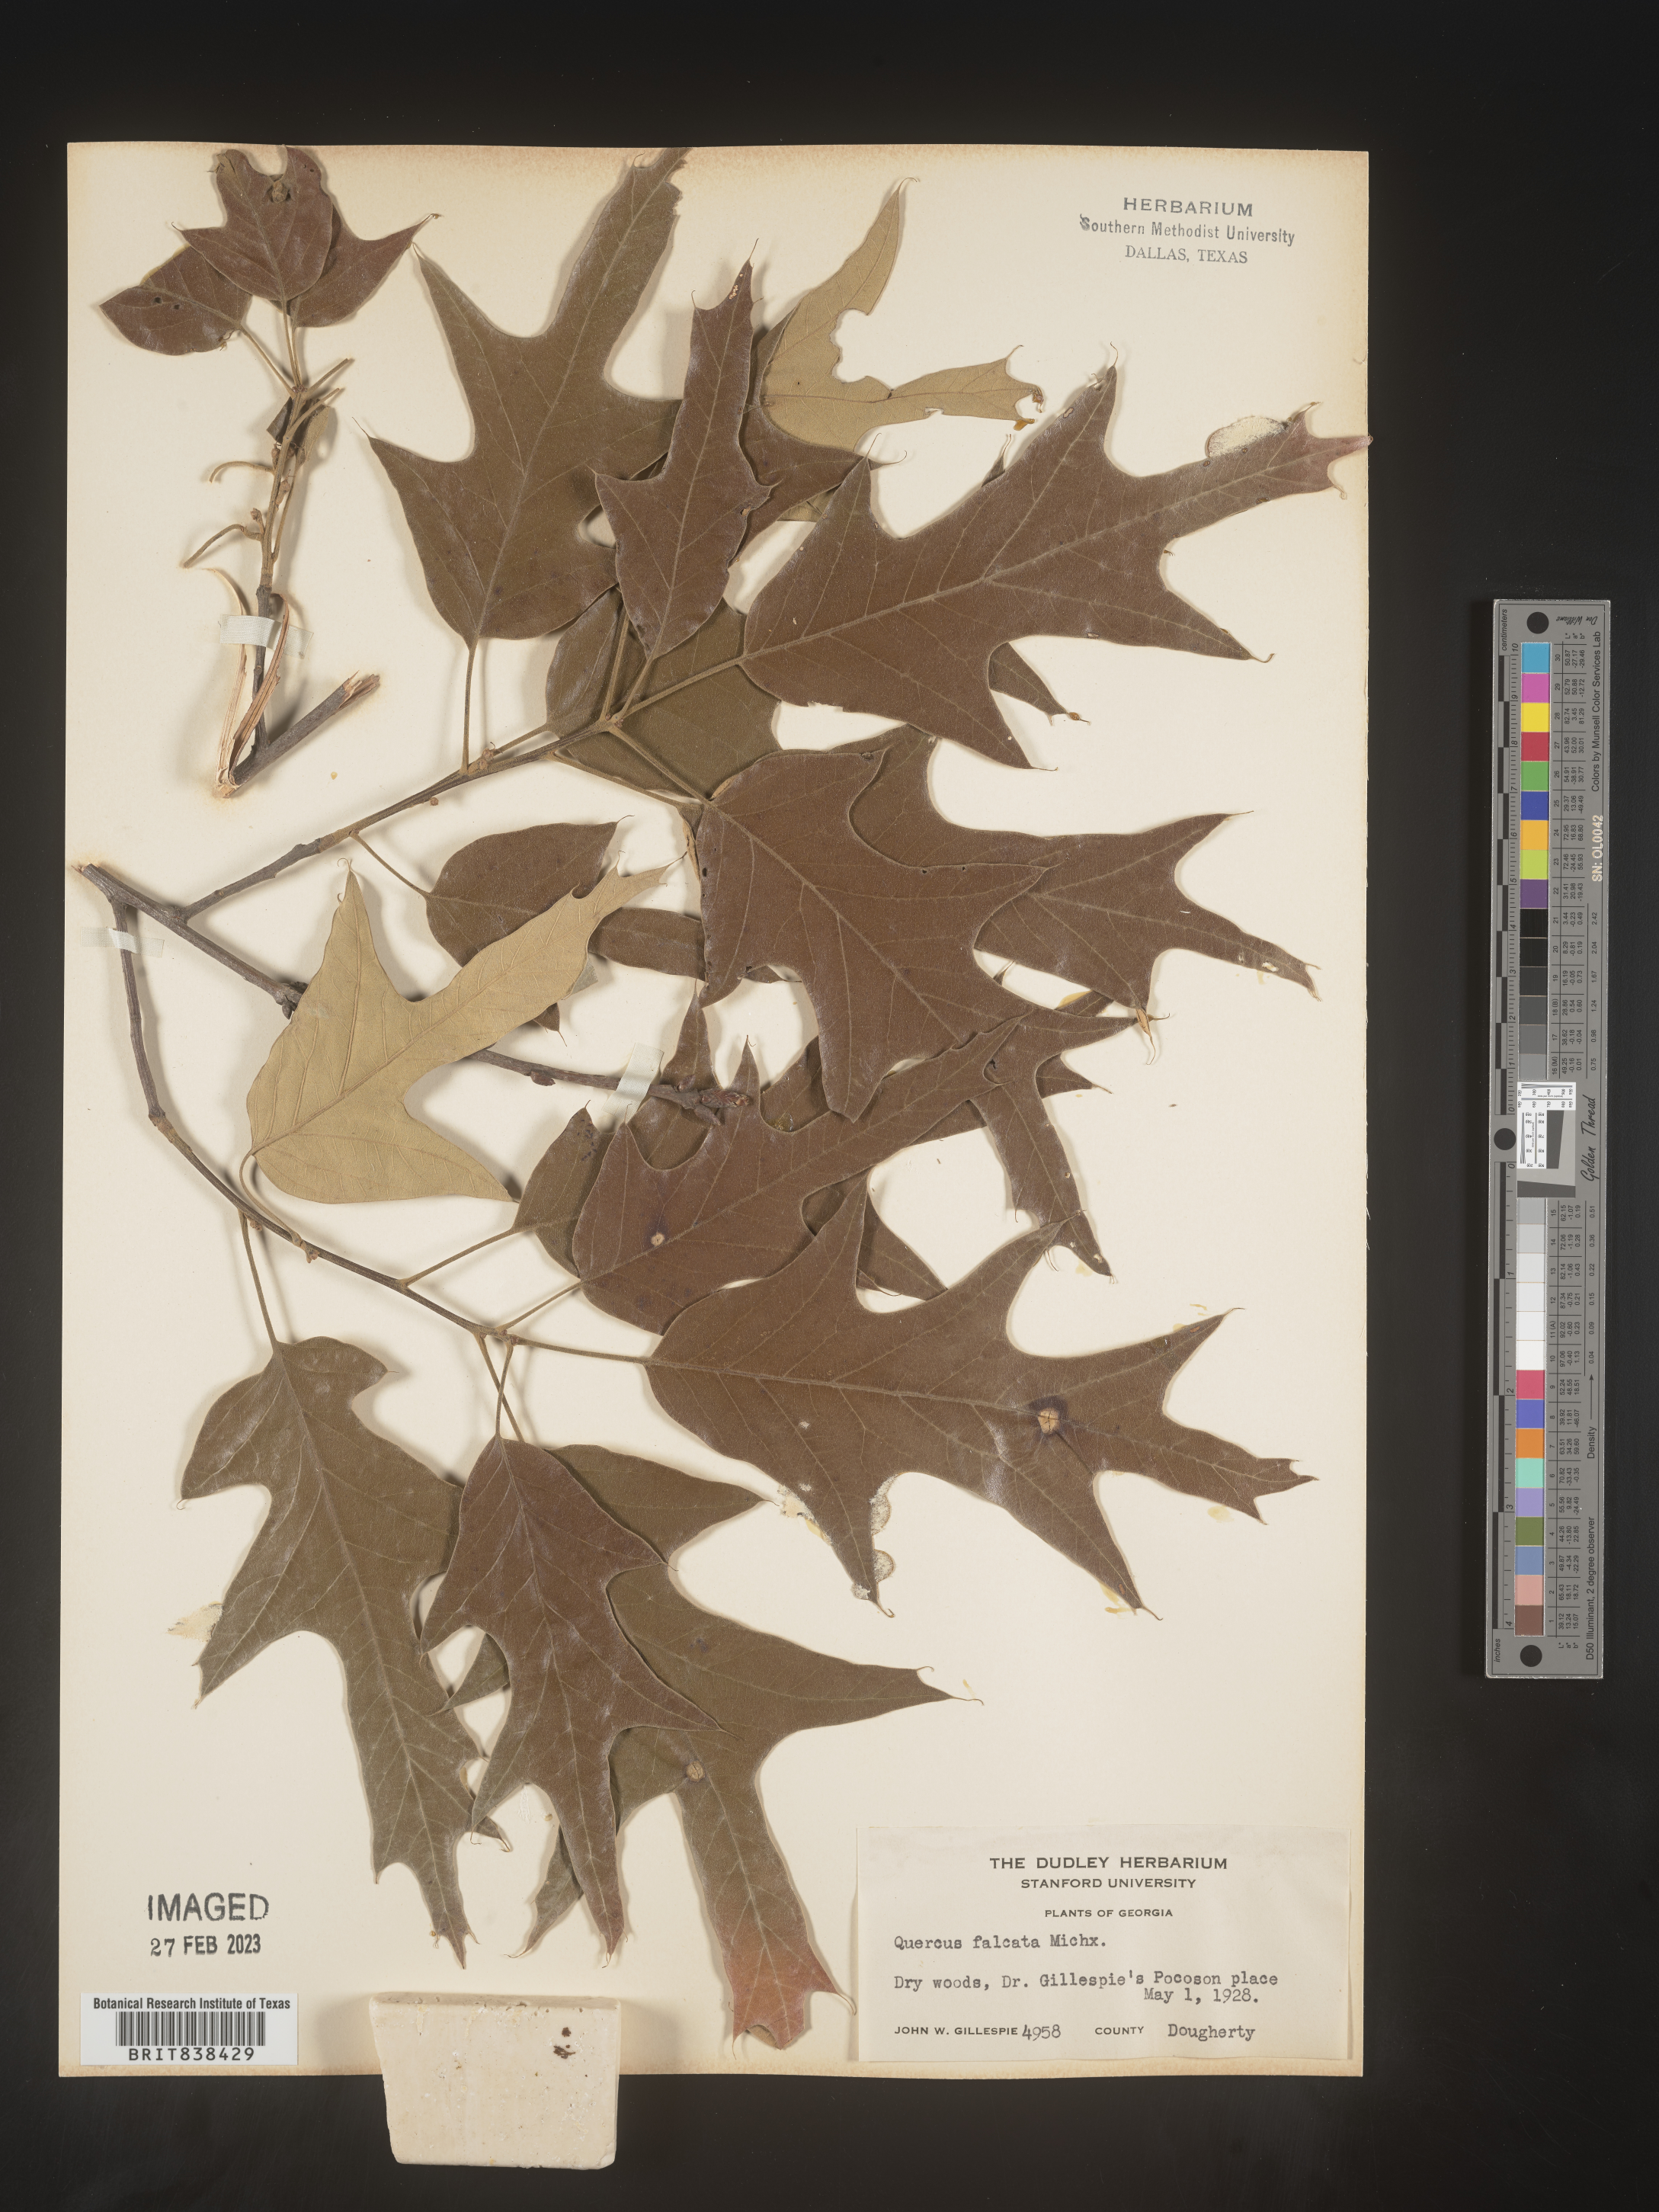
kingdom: Plantae
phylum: Tracheophyta
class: Magnoliopsida
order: Fagales
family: Fagaceae
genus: Quercus
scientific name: Quercus falcata
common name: Southern red oak
